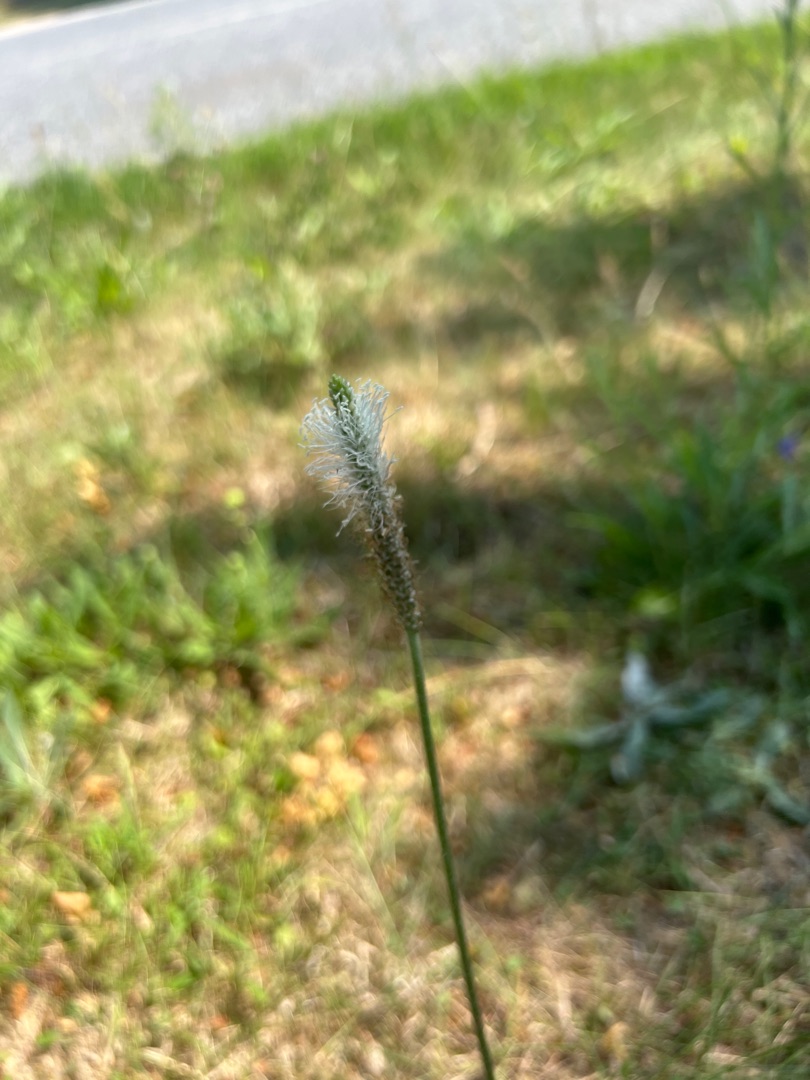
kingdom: Plantae
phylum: Tracheophyta
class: Magnoliopsida
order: Lamiales
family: Plantaginaceae
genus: Plantago
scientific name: Plantago media
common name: Dunet vejbred
